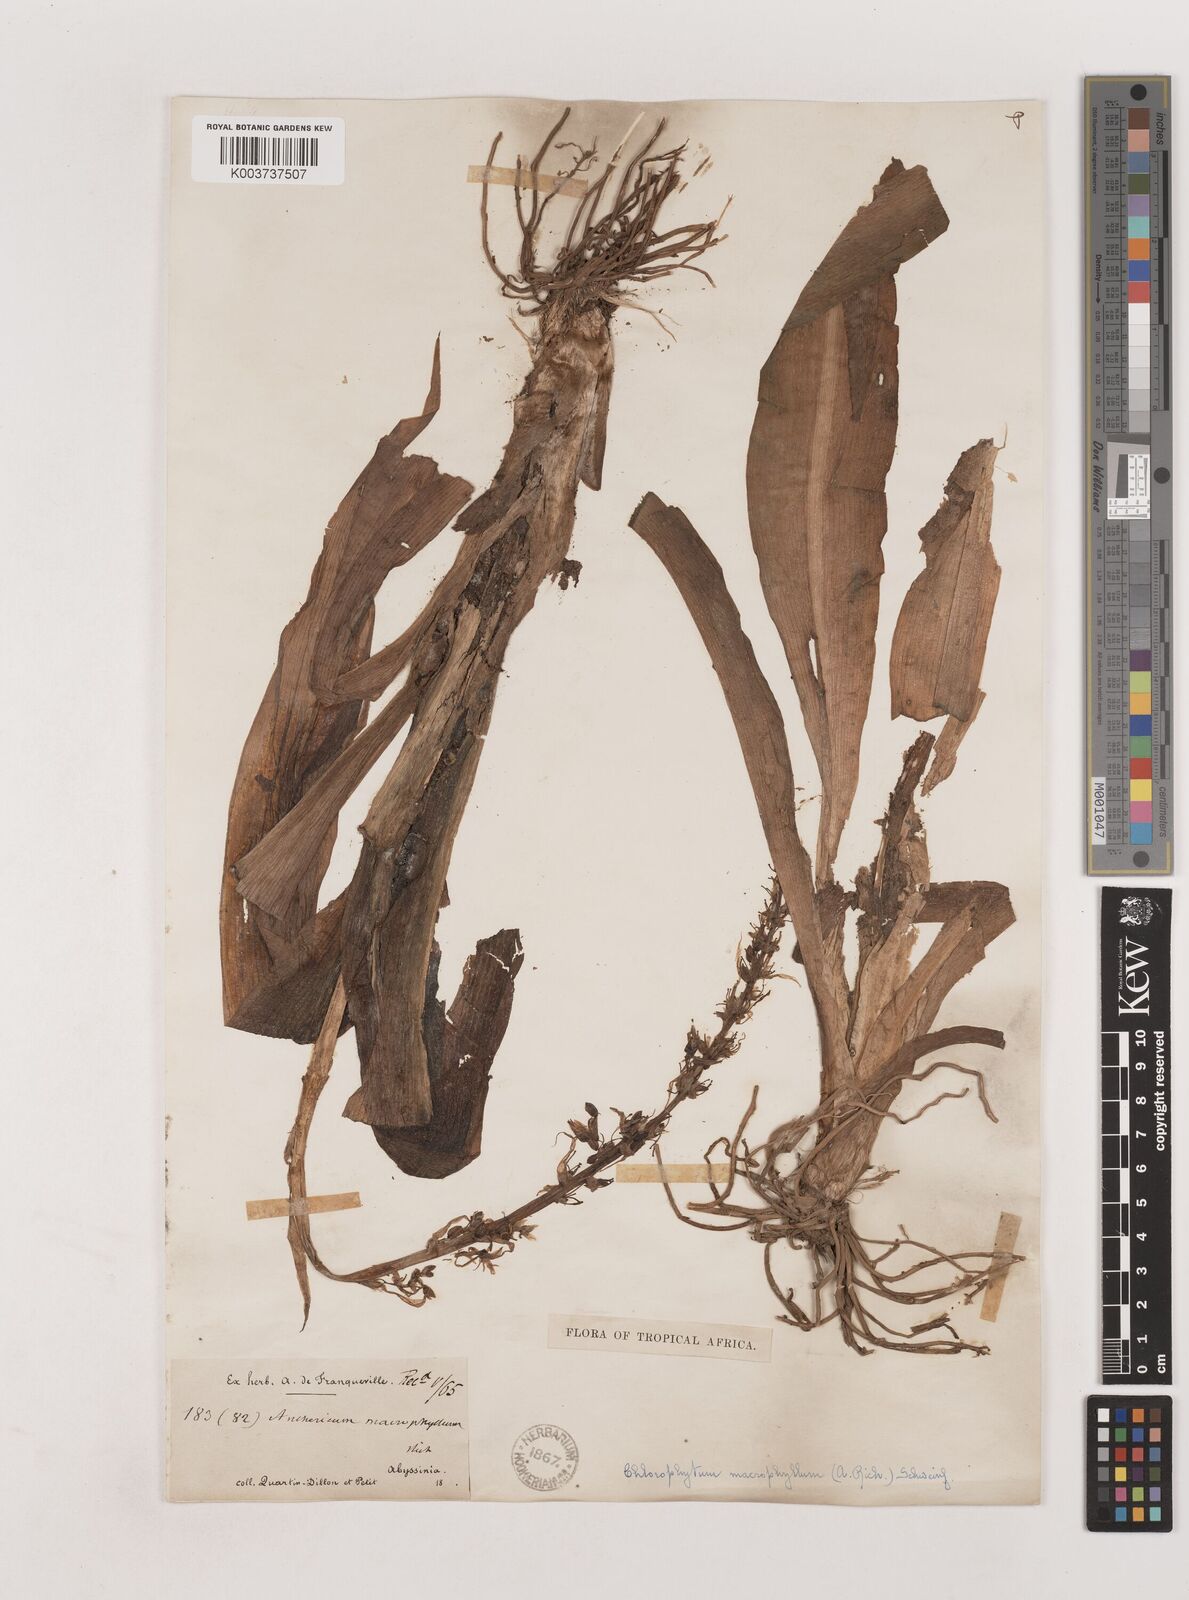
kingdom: Plantae
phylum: Tracheophyta
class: Liliopsida
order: Asparagales
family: Asparagaceae
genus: Chlorophytum
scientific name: Chlorophytum macrophyllum
